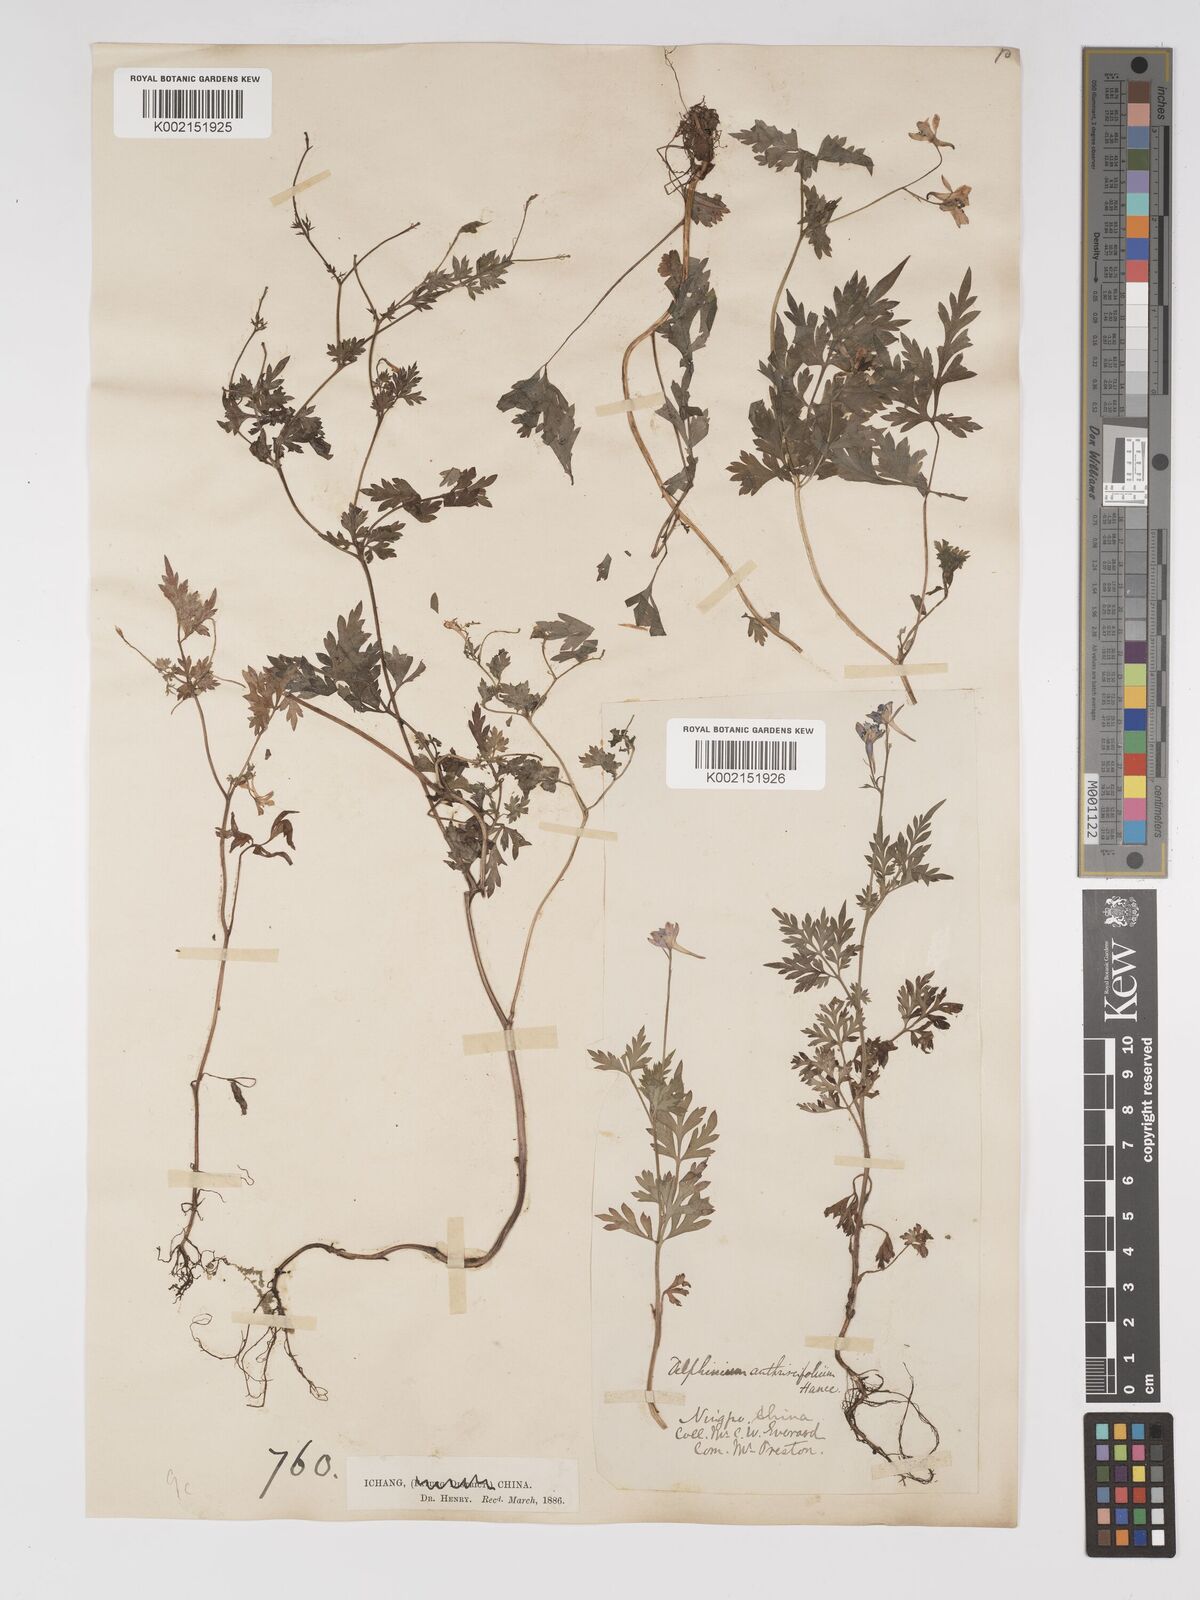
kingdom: Plantae
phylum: Tracheophyta
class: Magnoliopsida
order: Ranunculales
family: Ranunculaceae
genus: Delphinium
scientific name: Delphinium anthriscifolium
